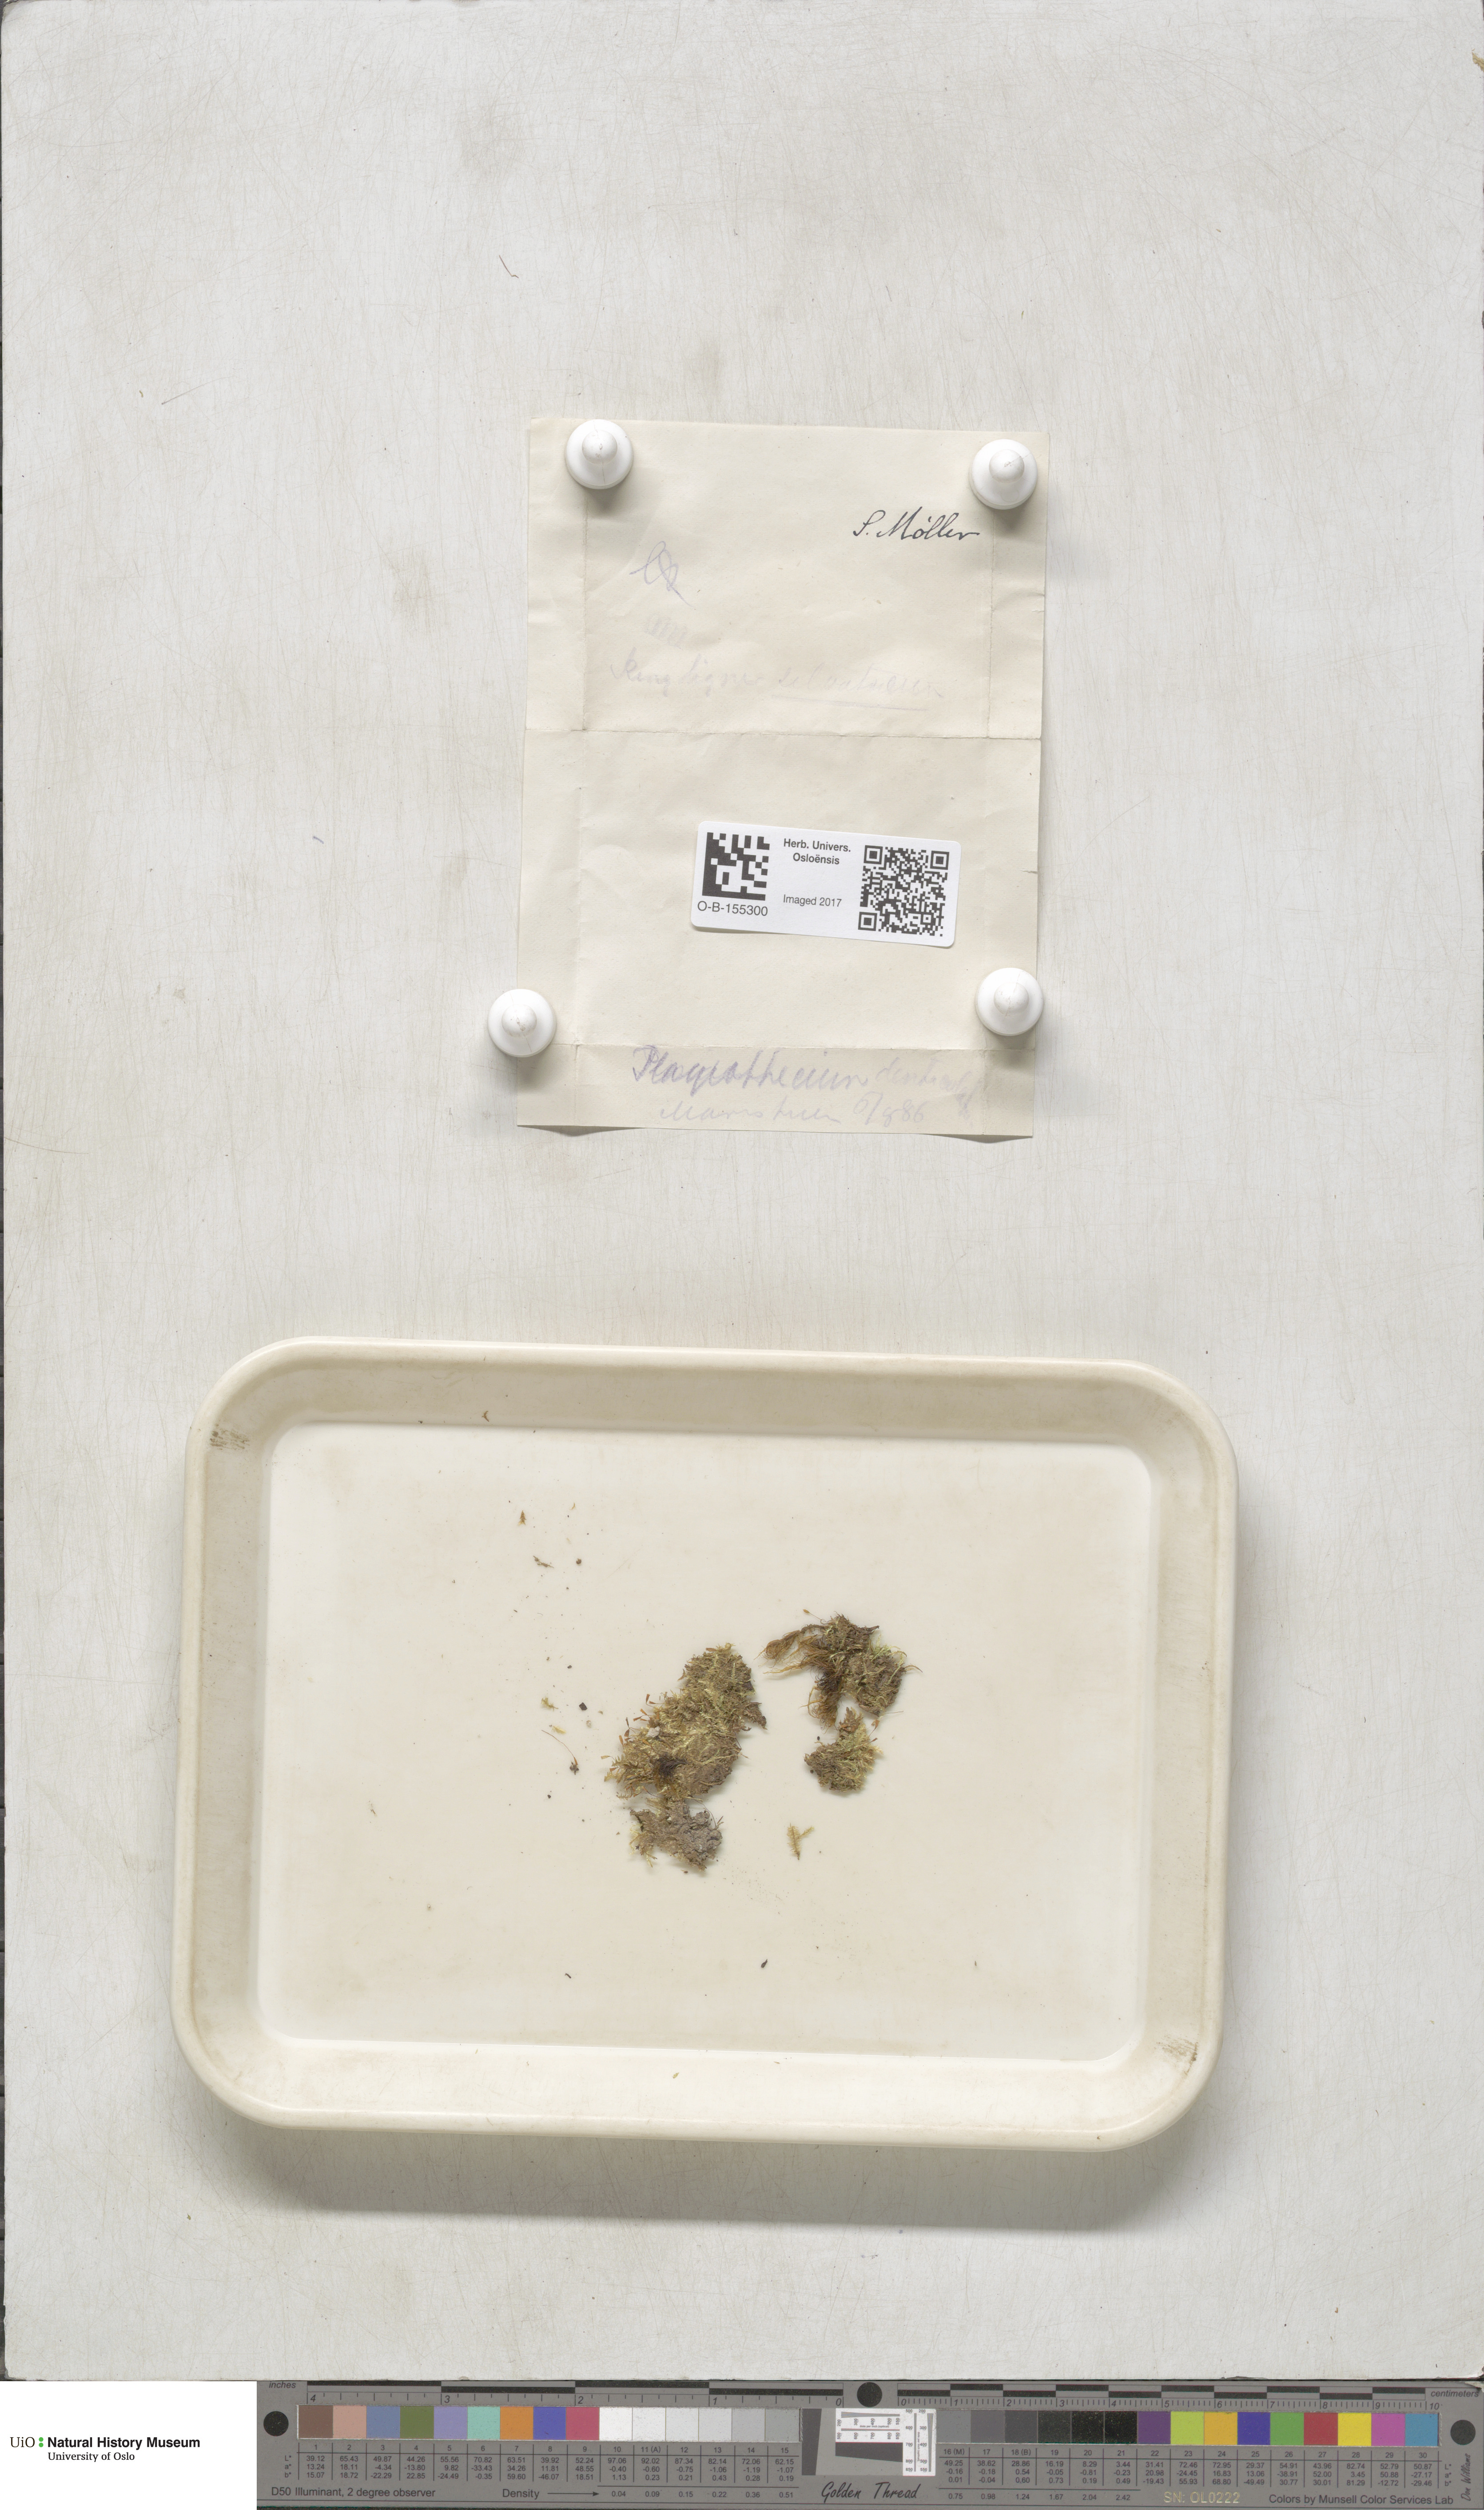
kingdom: Plantae
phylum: Bryophyta
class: Bryopsida
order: Hypnales
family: Plagiotheciaceae
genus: Plagiothecium
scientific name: Plagiothecium denticulatum
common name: Dented silk moss
